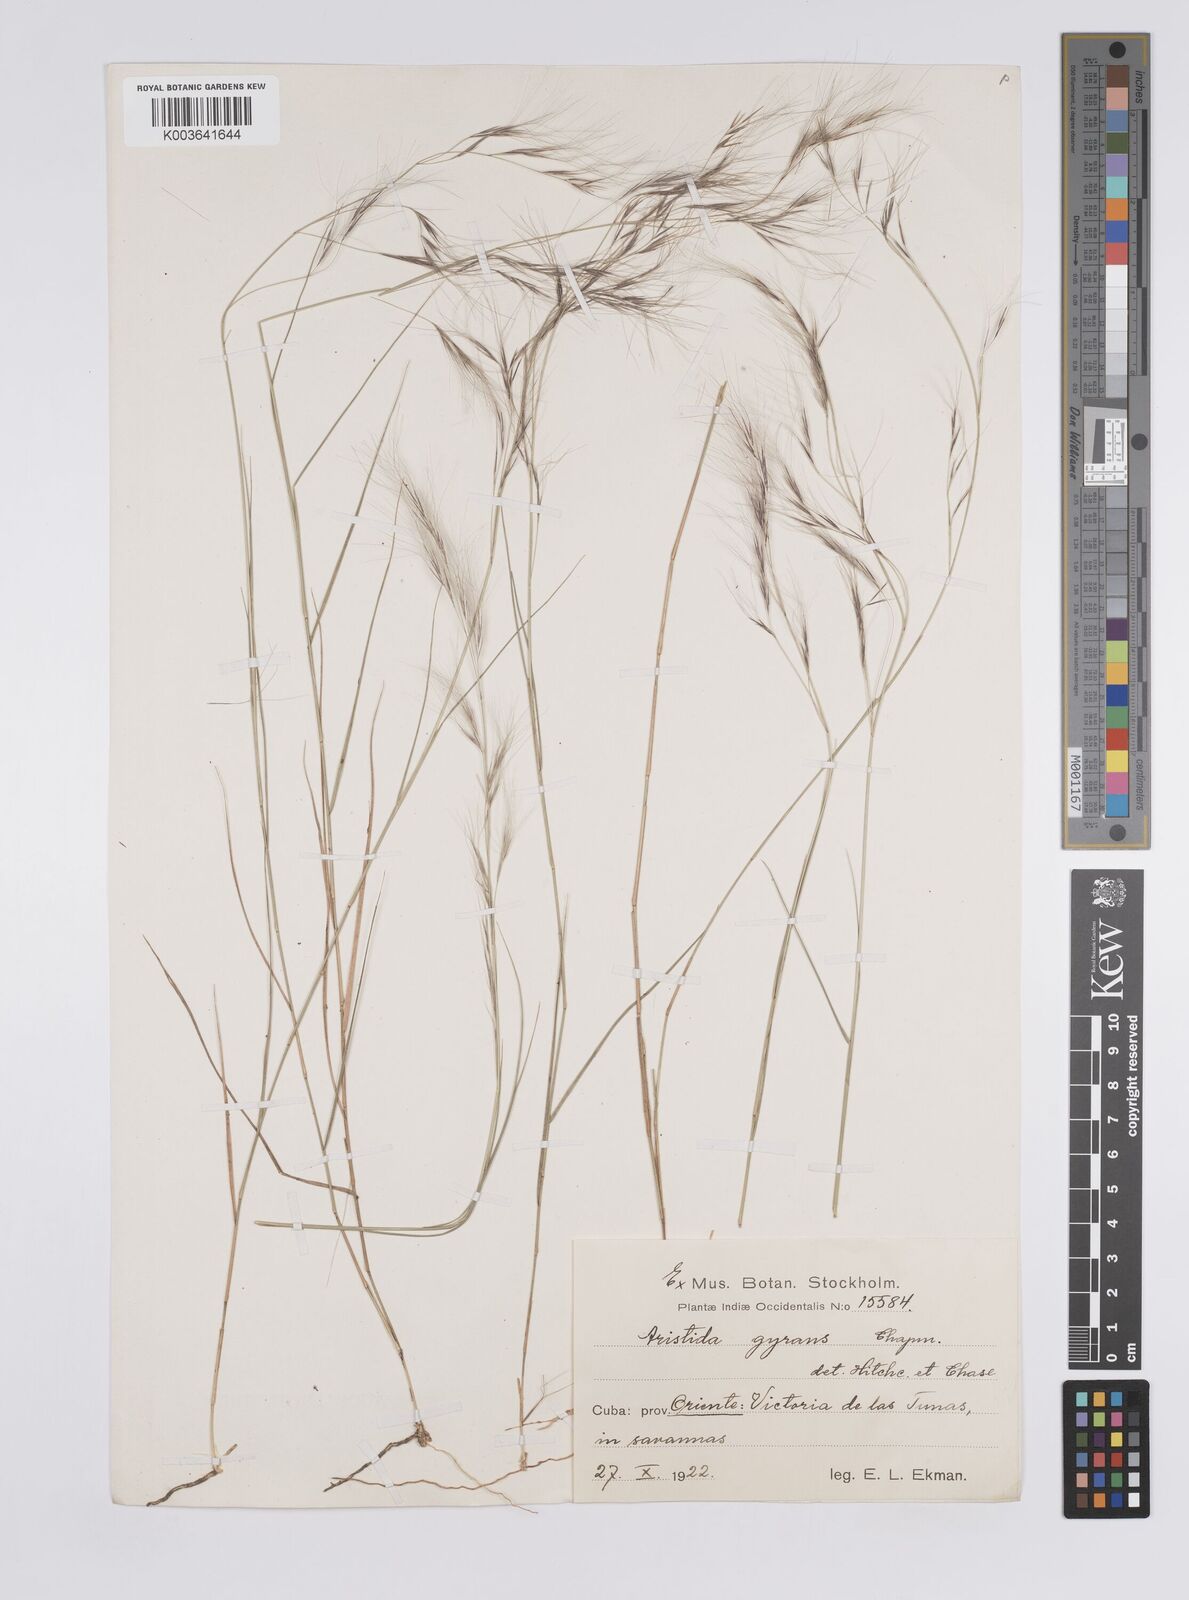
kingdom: Plantae
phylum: Tracheophyta
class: Liliopsida
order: Poales
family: Poaceae
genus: Aristida
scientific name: Aristida vilfifolia
